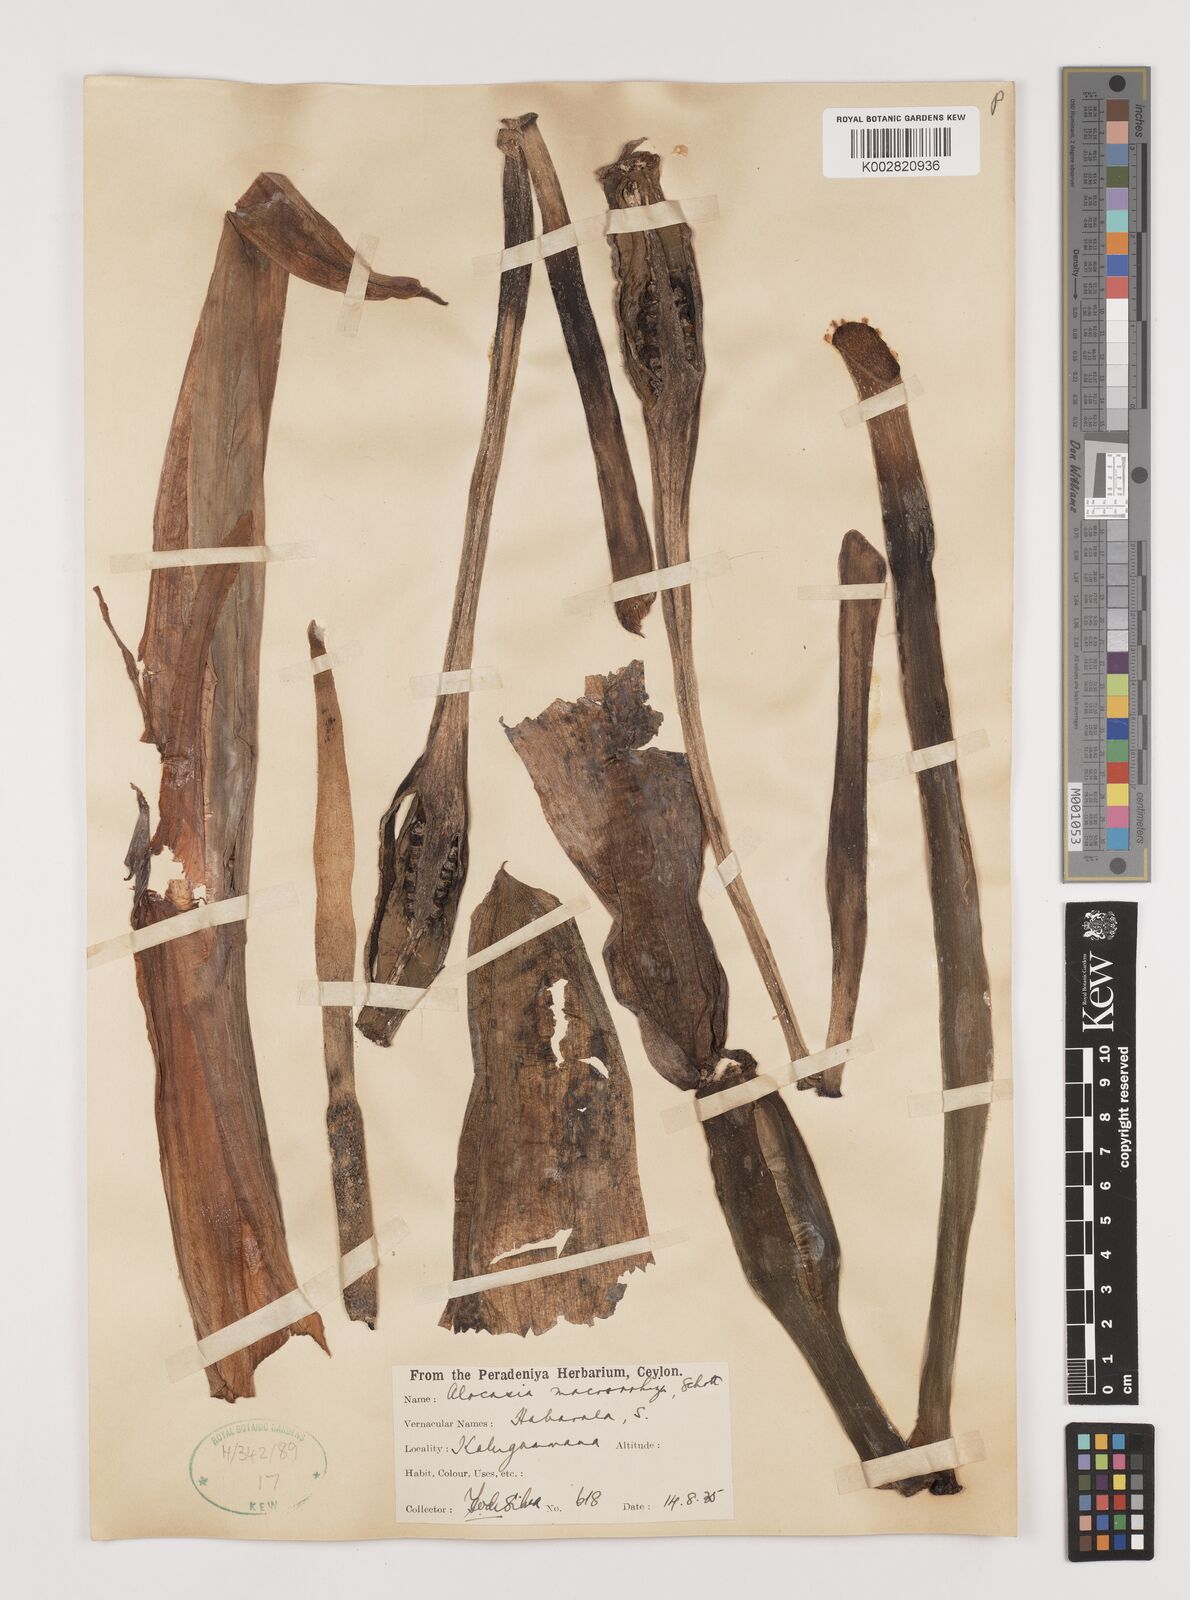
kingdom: Plantae
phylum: Tracheophyta
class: Liliopsida
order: Alismatales
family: Araceae
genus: Alocasia
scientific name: Alocasia macrorrhizos
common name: Giant taro
